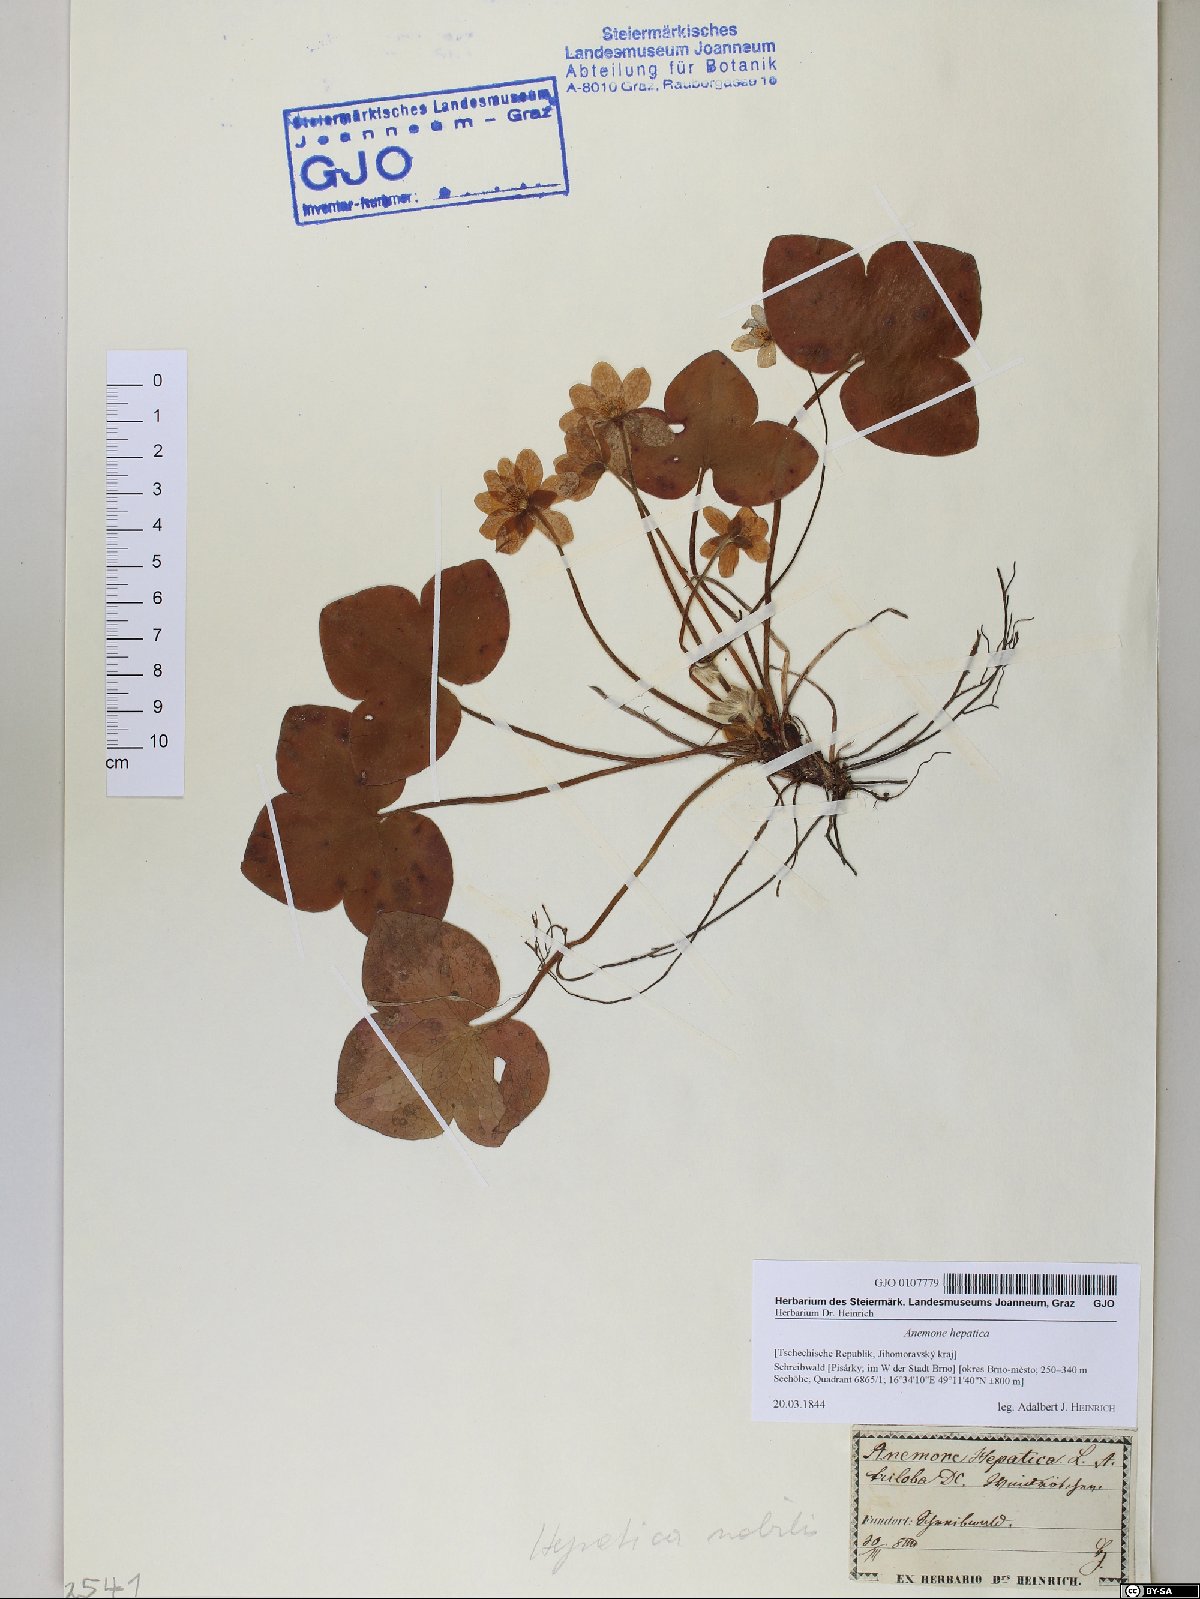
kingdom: Plantae
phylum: Tracheophyta
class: Magnoliopsida
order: Ranunculales
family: Ranunculaceae
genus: Hepatica
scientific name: Hepatica nobilis
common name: Liverleaf
